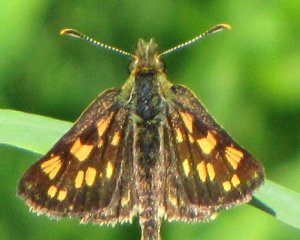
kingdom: Animalia
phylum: Arthropoda
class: Insecta
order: Lepidoptera
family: Hesperiidae
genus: Carterocephalus
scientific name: Carterocephalus palaemon
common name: Chequered Skipper
